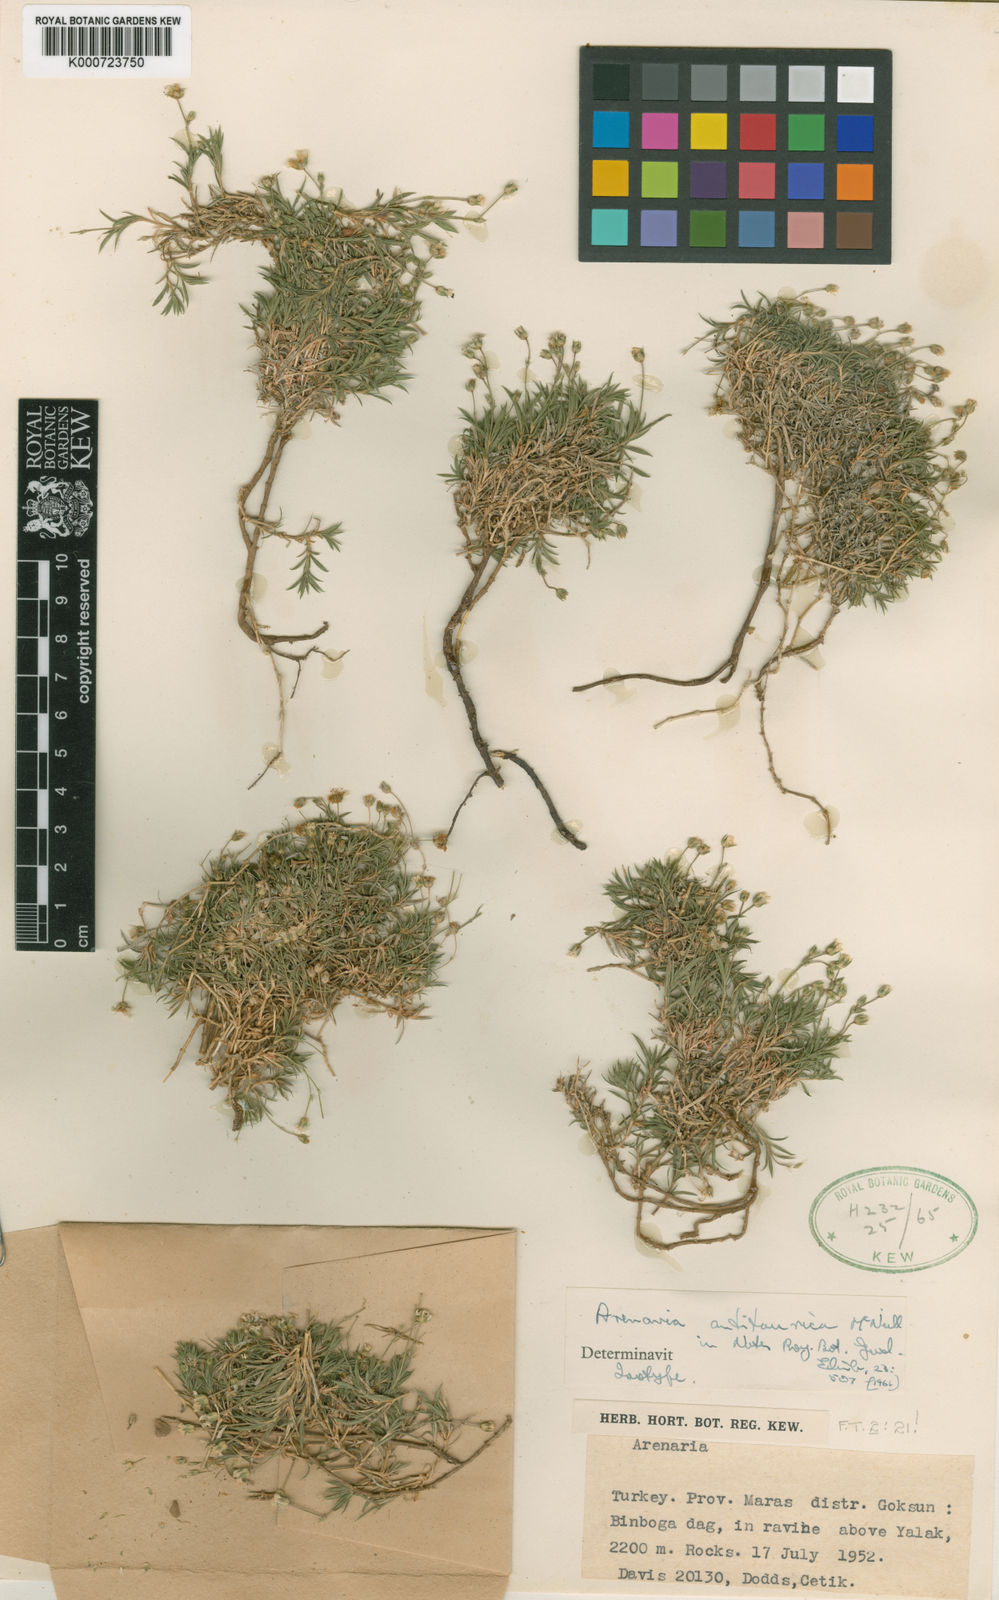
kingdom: Plantae
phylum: Tracheophyta
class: Magnoliopsida
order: Caryophyllales
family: Caryophyllaceae
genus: Arenaria
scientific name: Arenaria antitaurica
